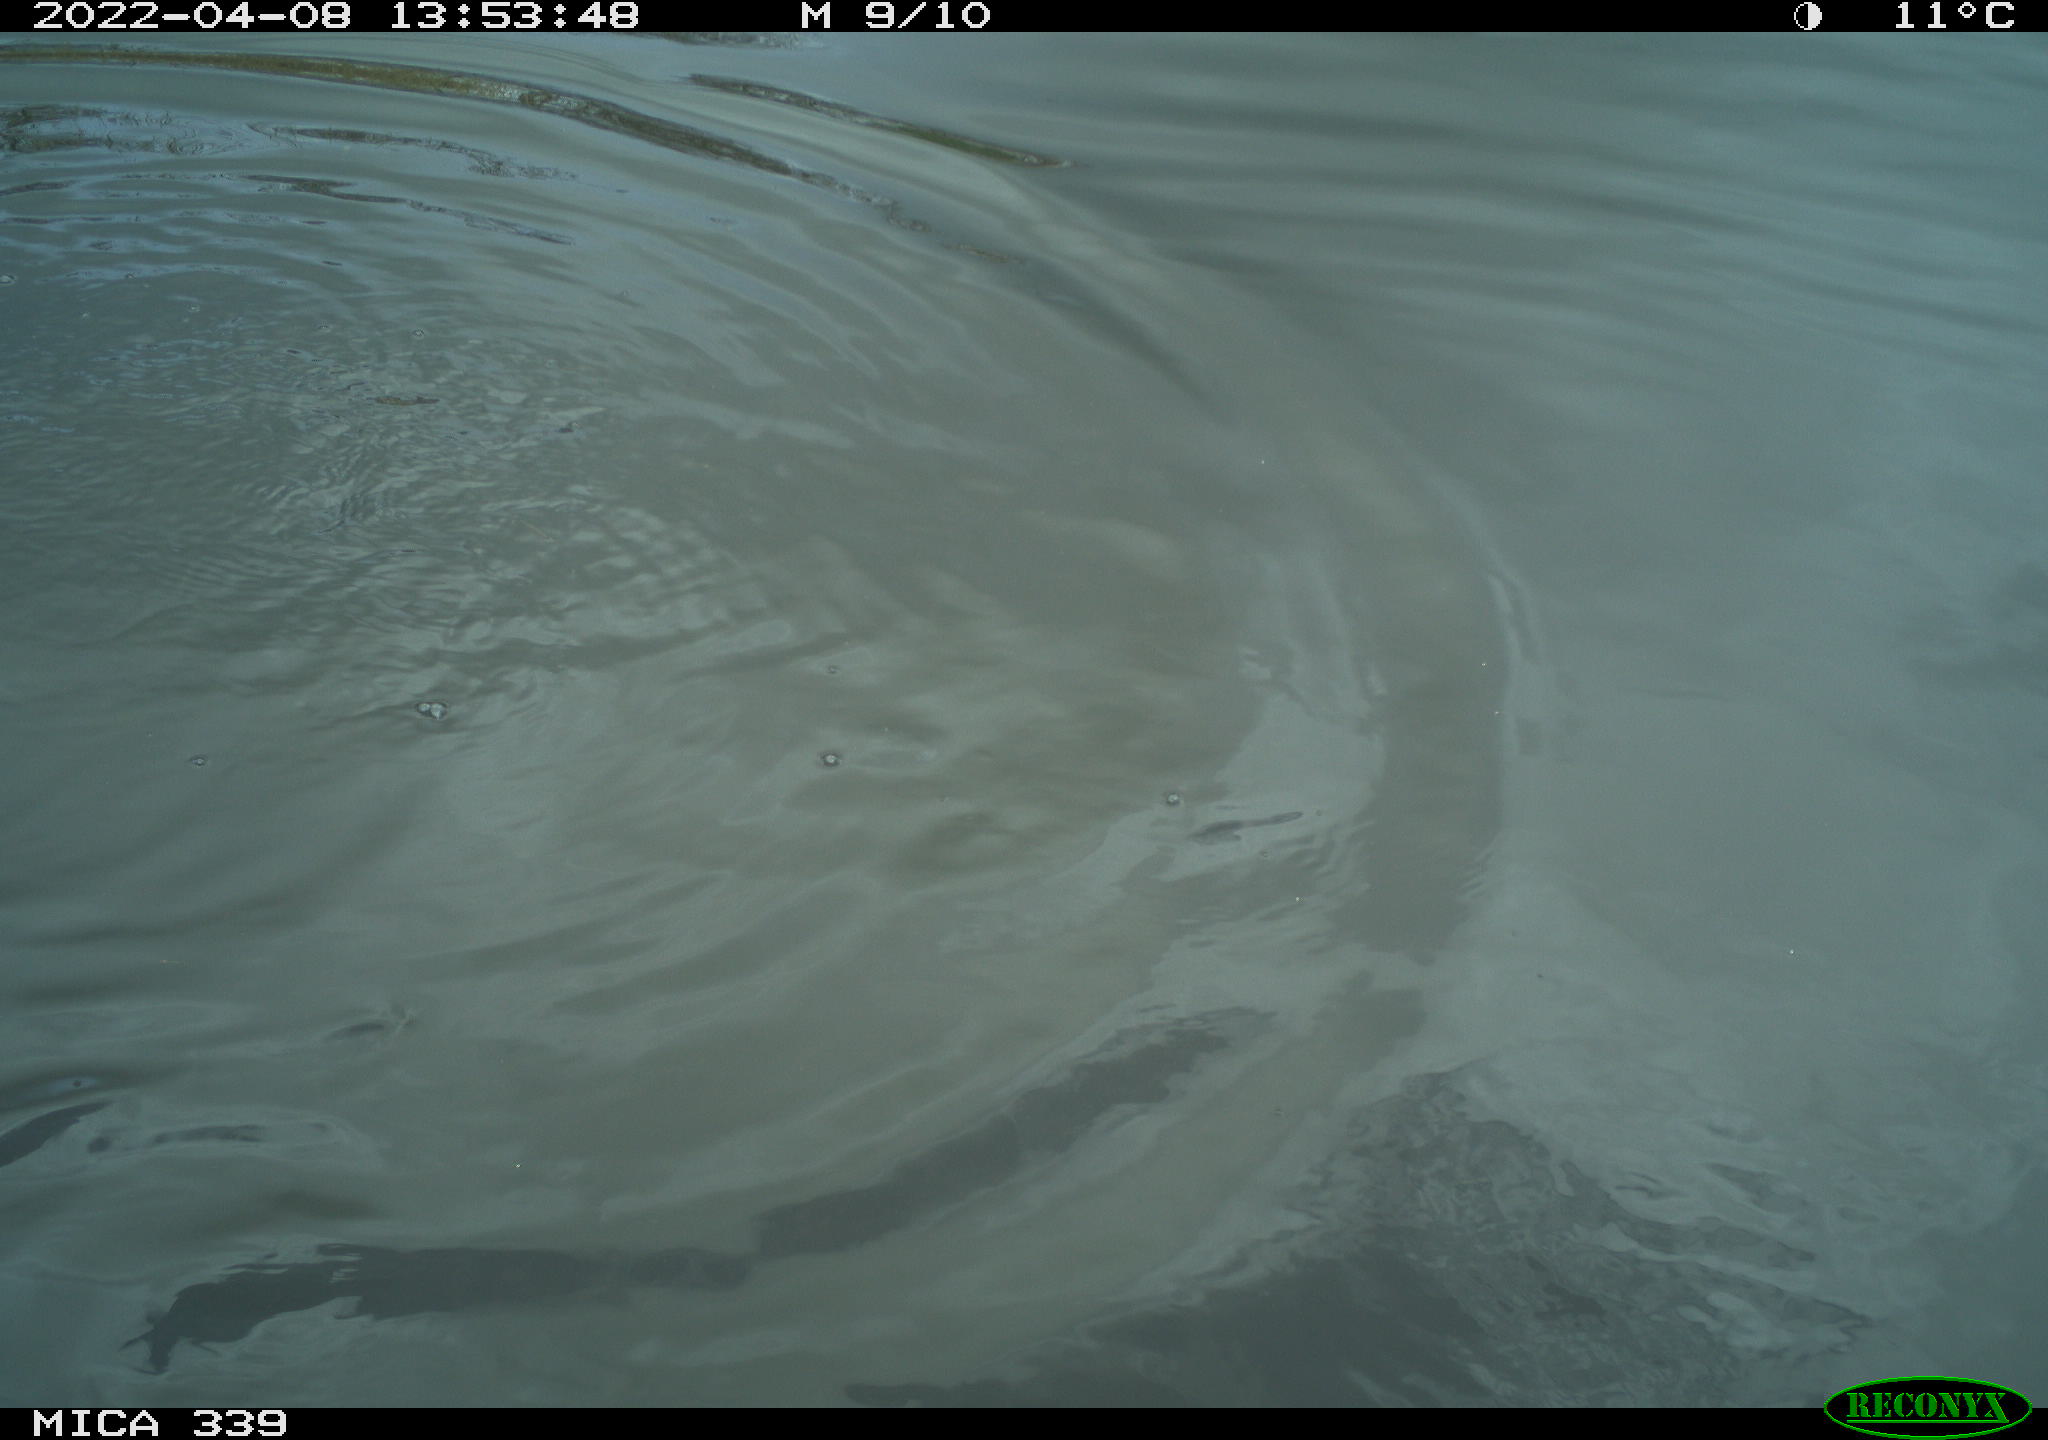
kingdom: Animalia
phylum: Chordata
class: Aves
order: Suliformes
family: Phalacrocoracidae
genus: Phalacrocorax
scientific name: Phalacrocorax carbo
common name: Great cormorant
